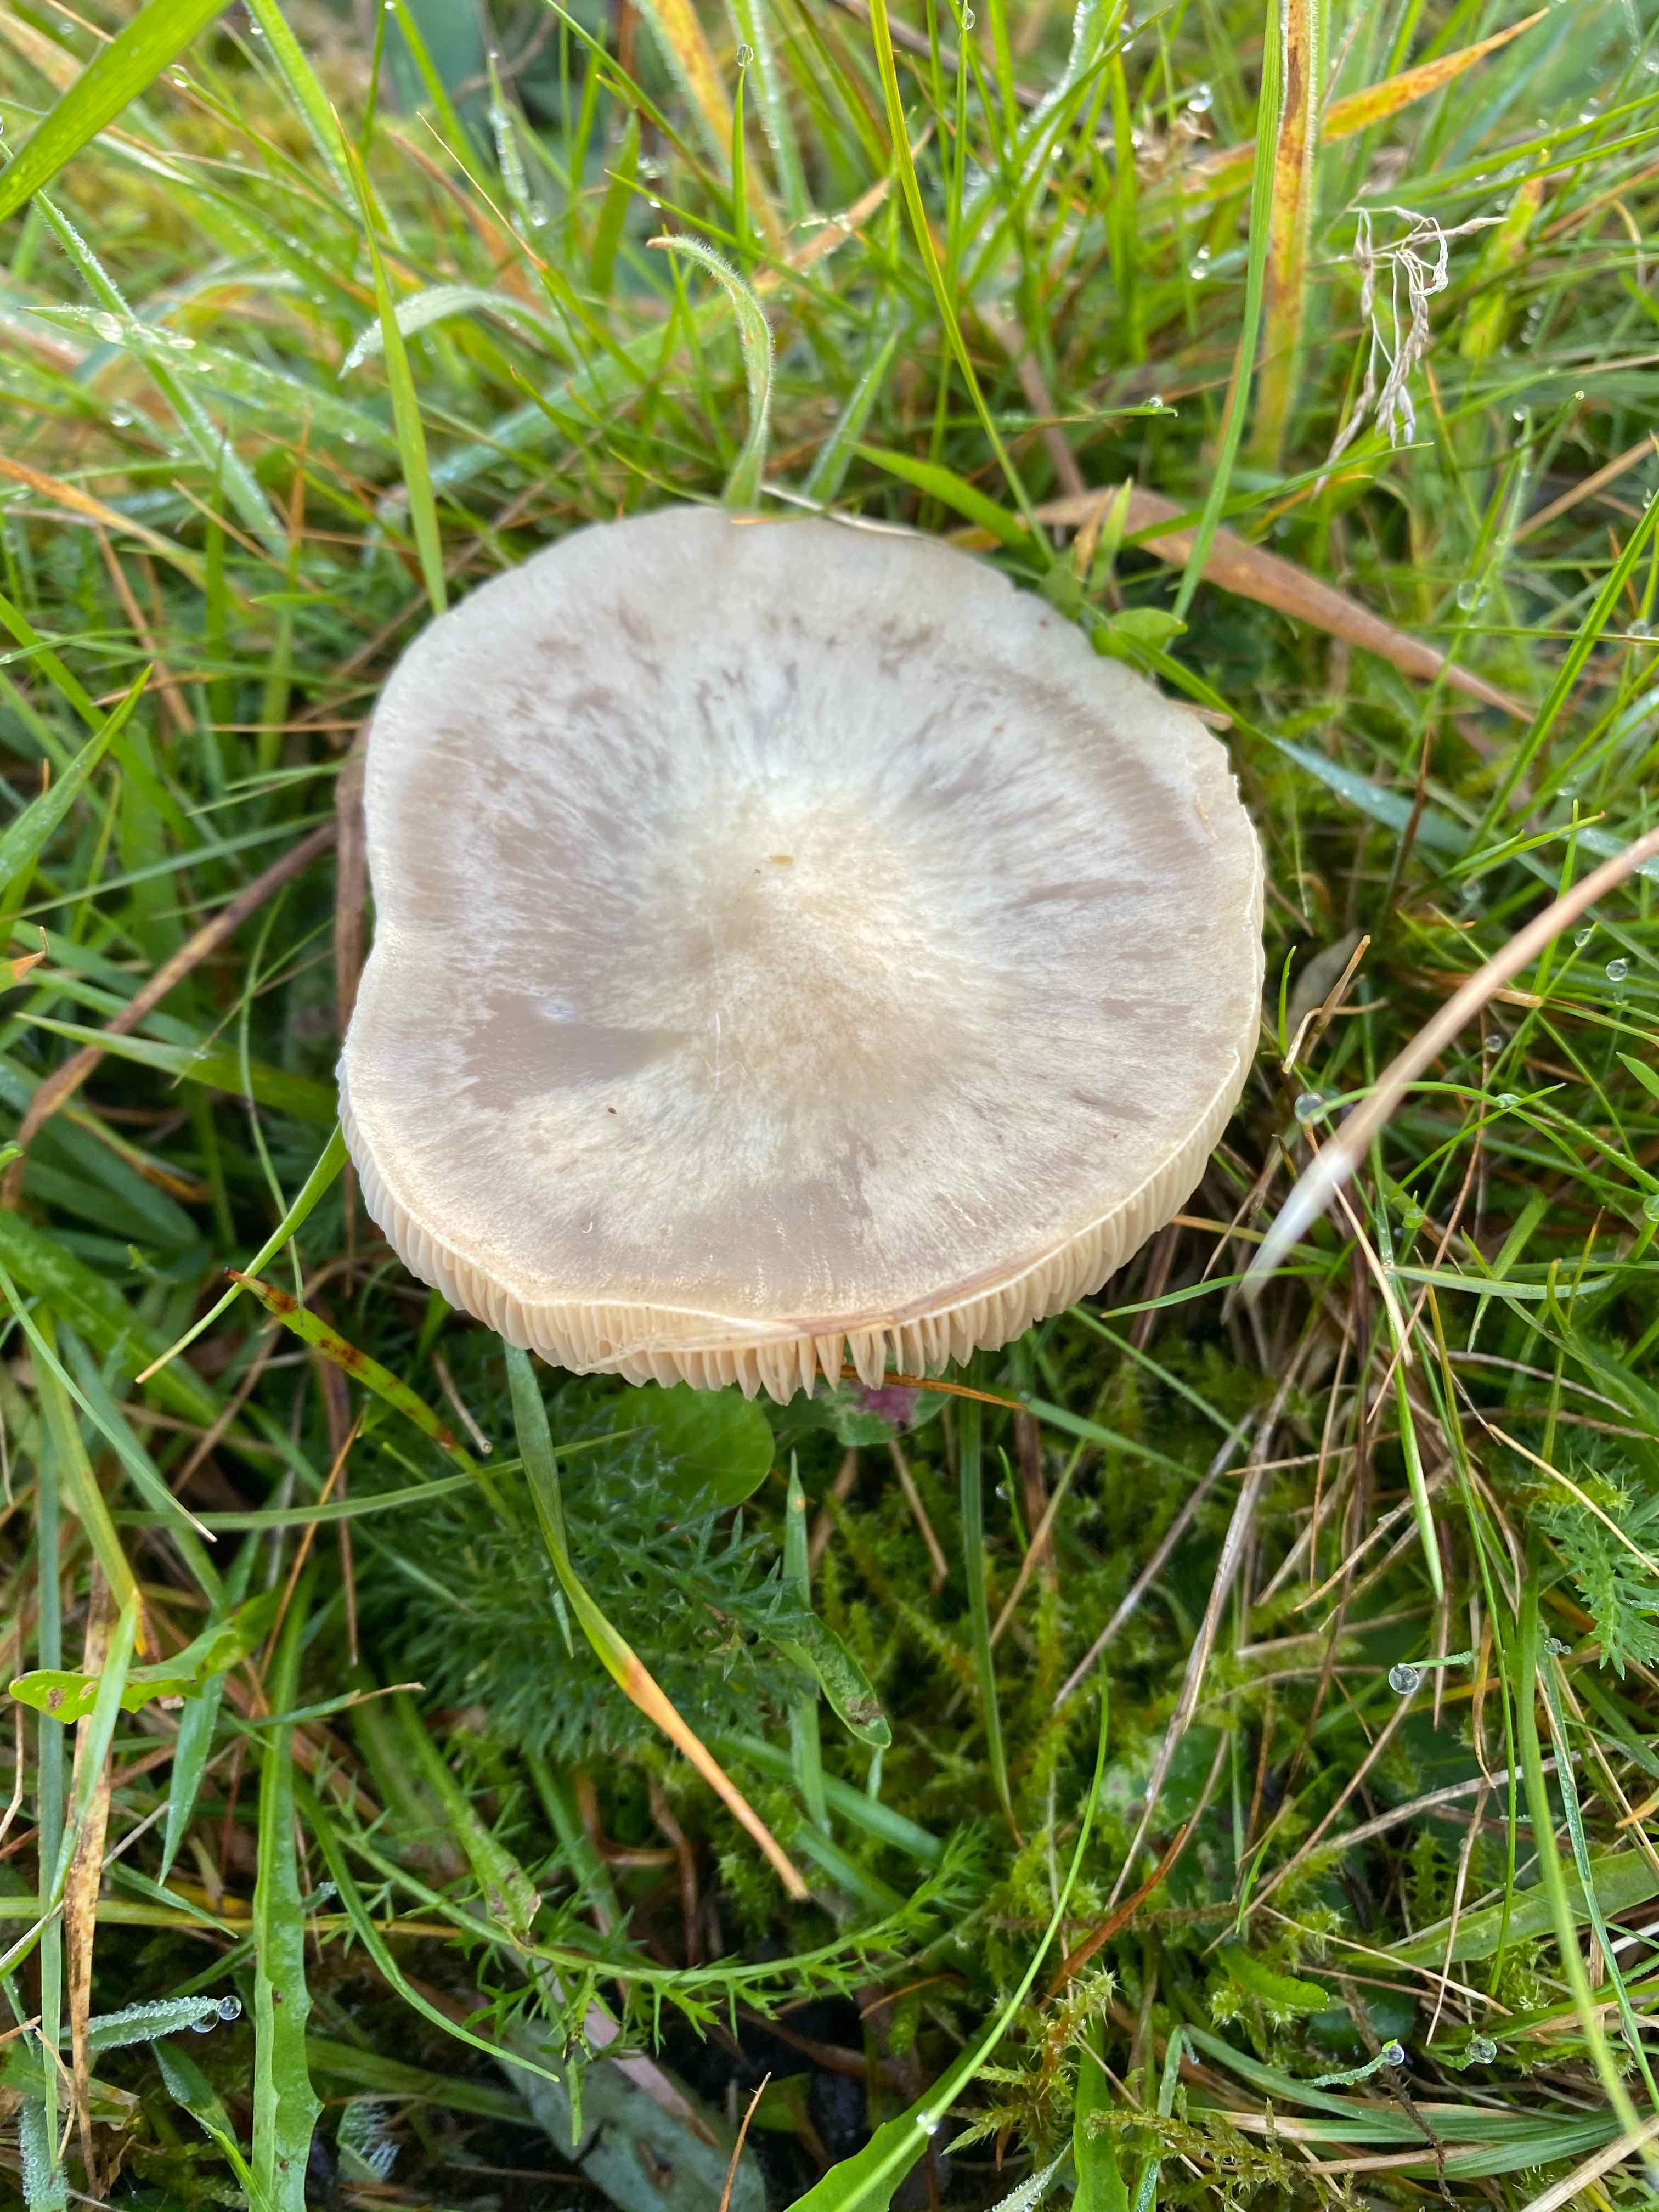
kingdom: Fungi
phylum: Basidiomycota
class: Agaricomycetes
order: Agaricales
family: Entolomataceae
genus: Entoloma
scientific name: Entoloma prunuloides
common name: mel-rødblad
